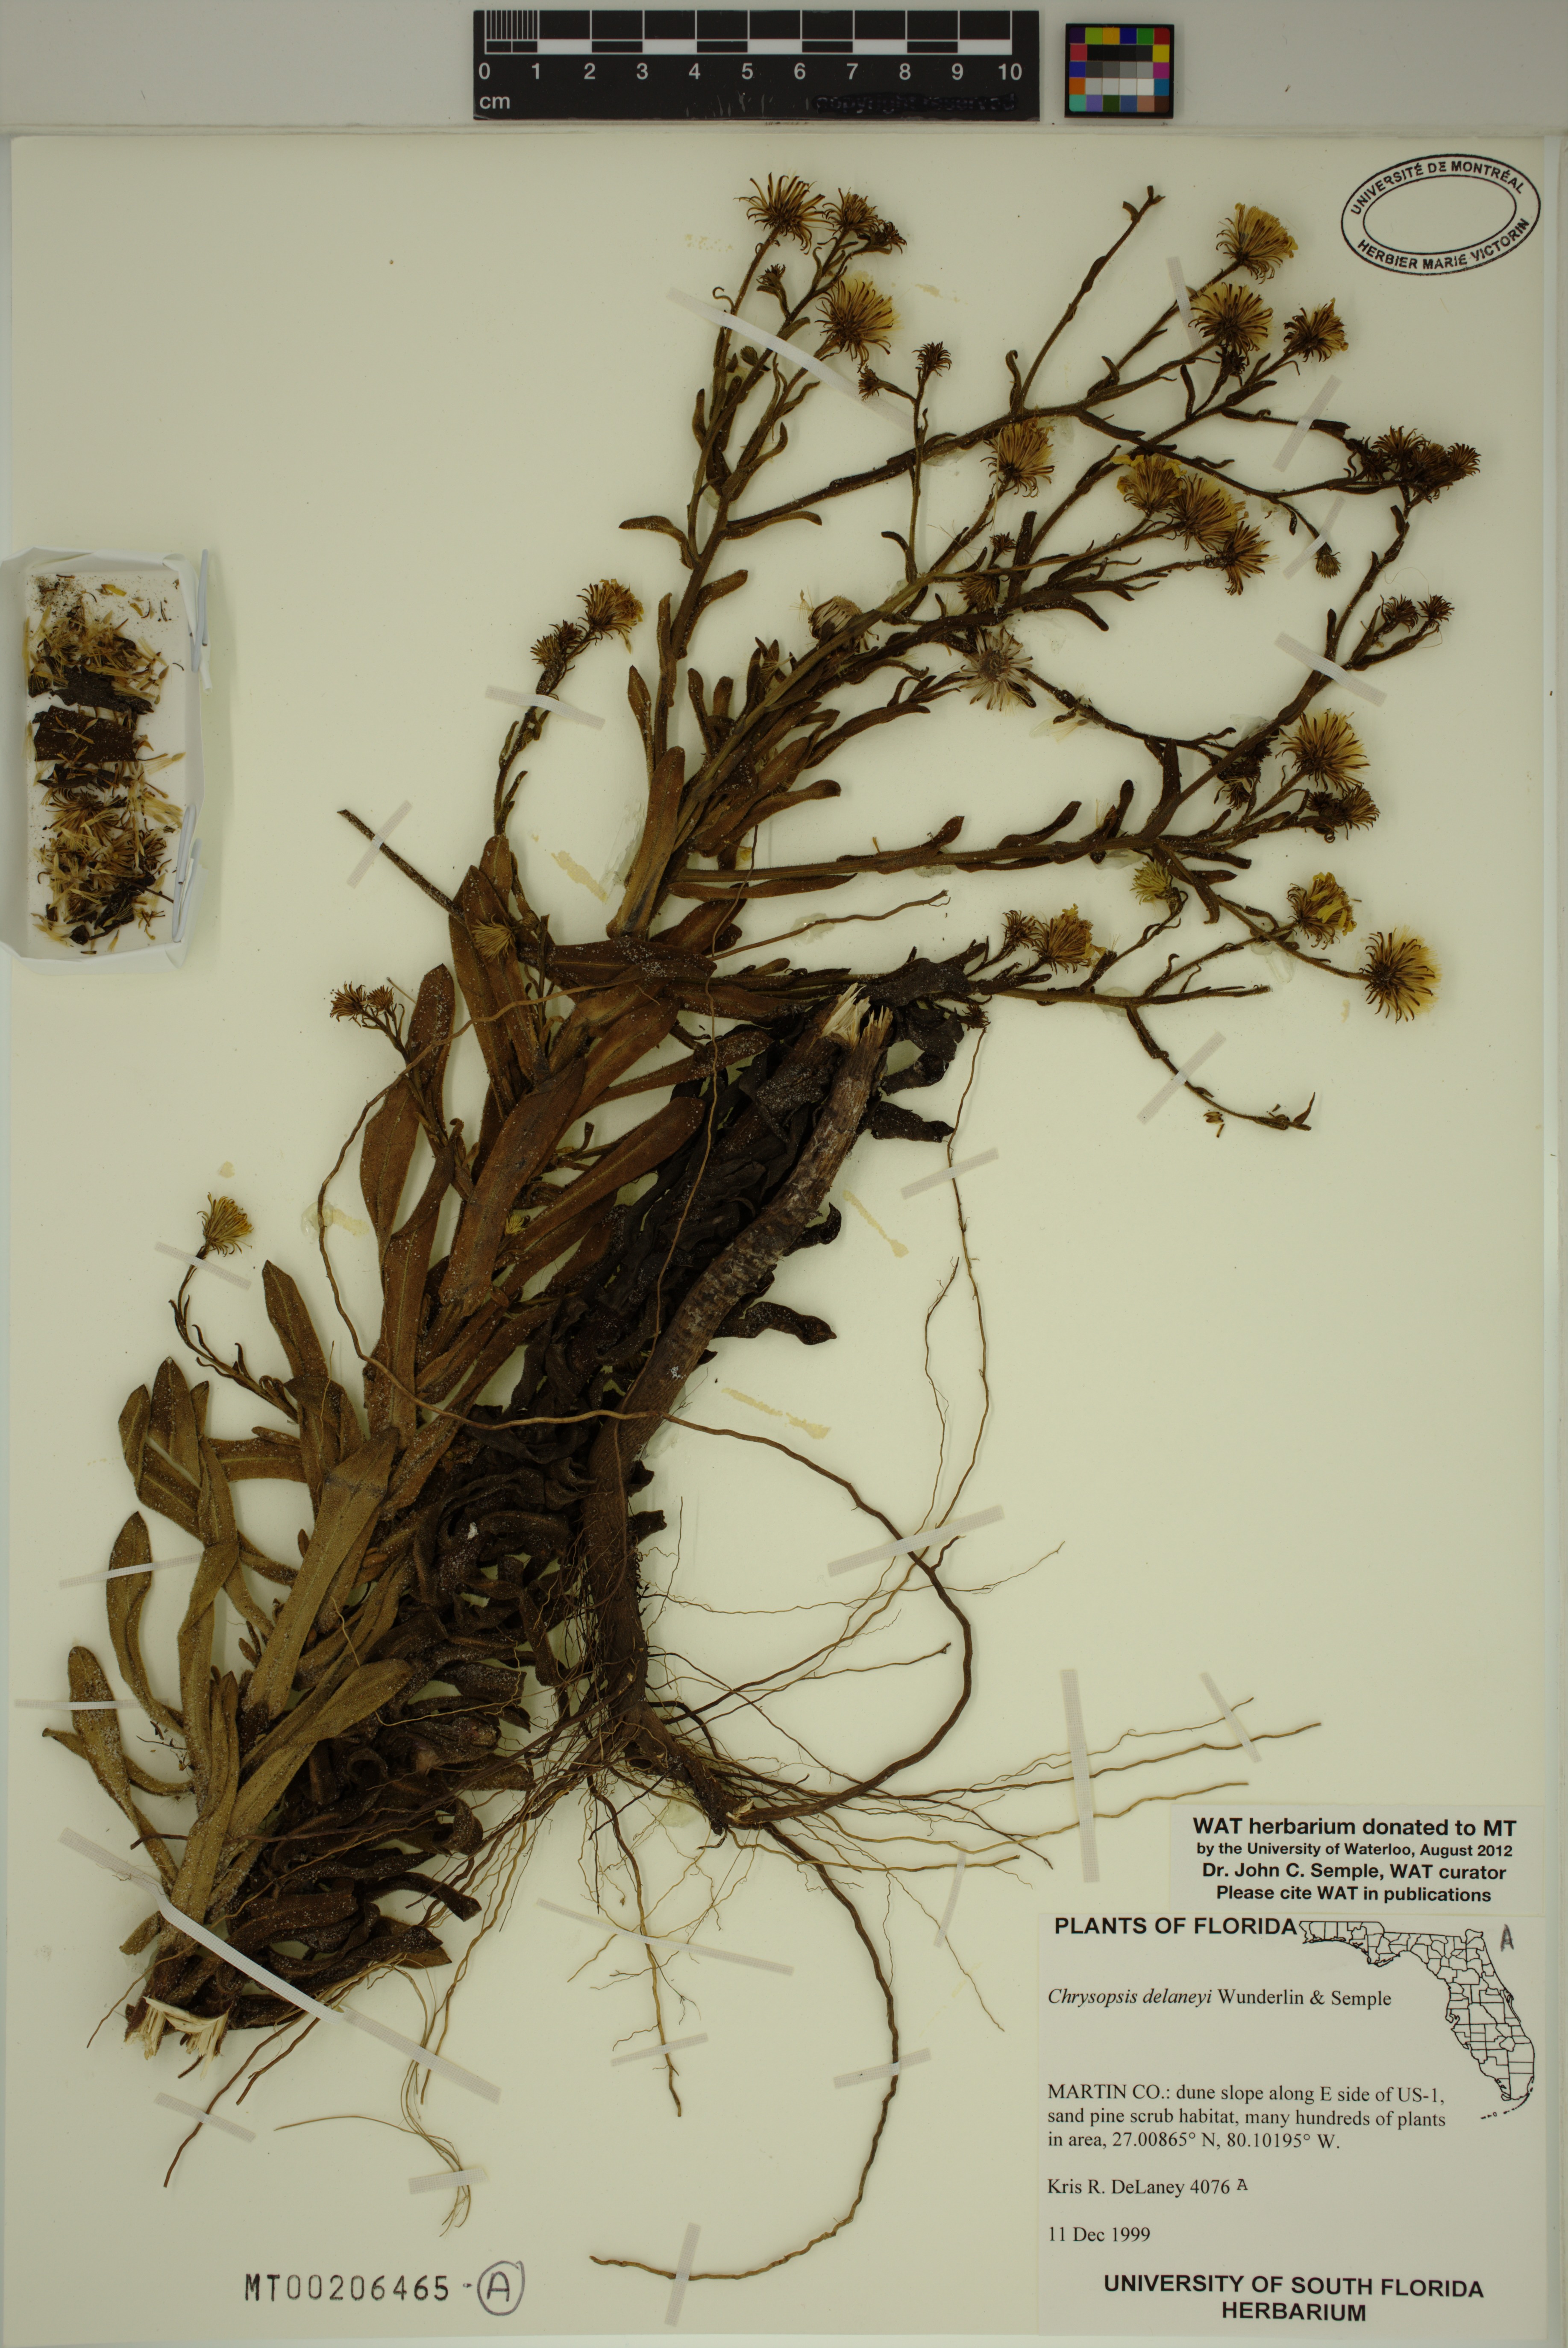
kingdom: Plantae
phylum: Tracheophyta
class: Magnoliopsida
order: Asterales
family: Asteraceae
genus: Chrysopsis
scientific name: Chrysopsis delaneyi
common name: Delaney's goldenaster
